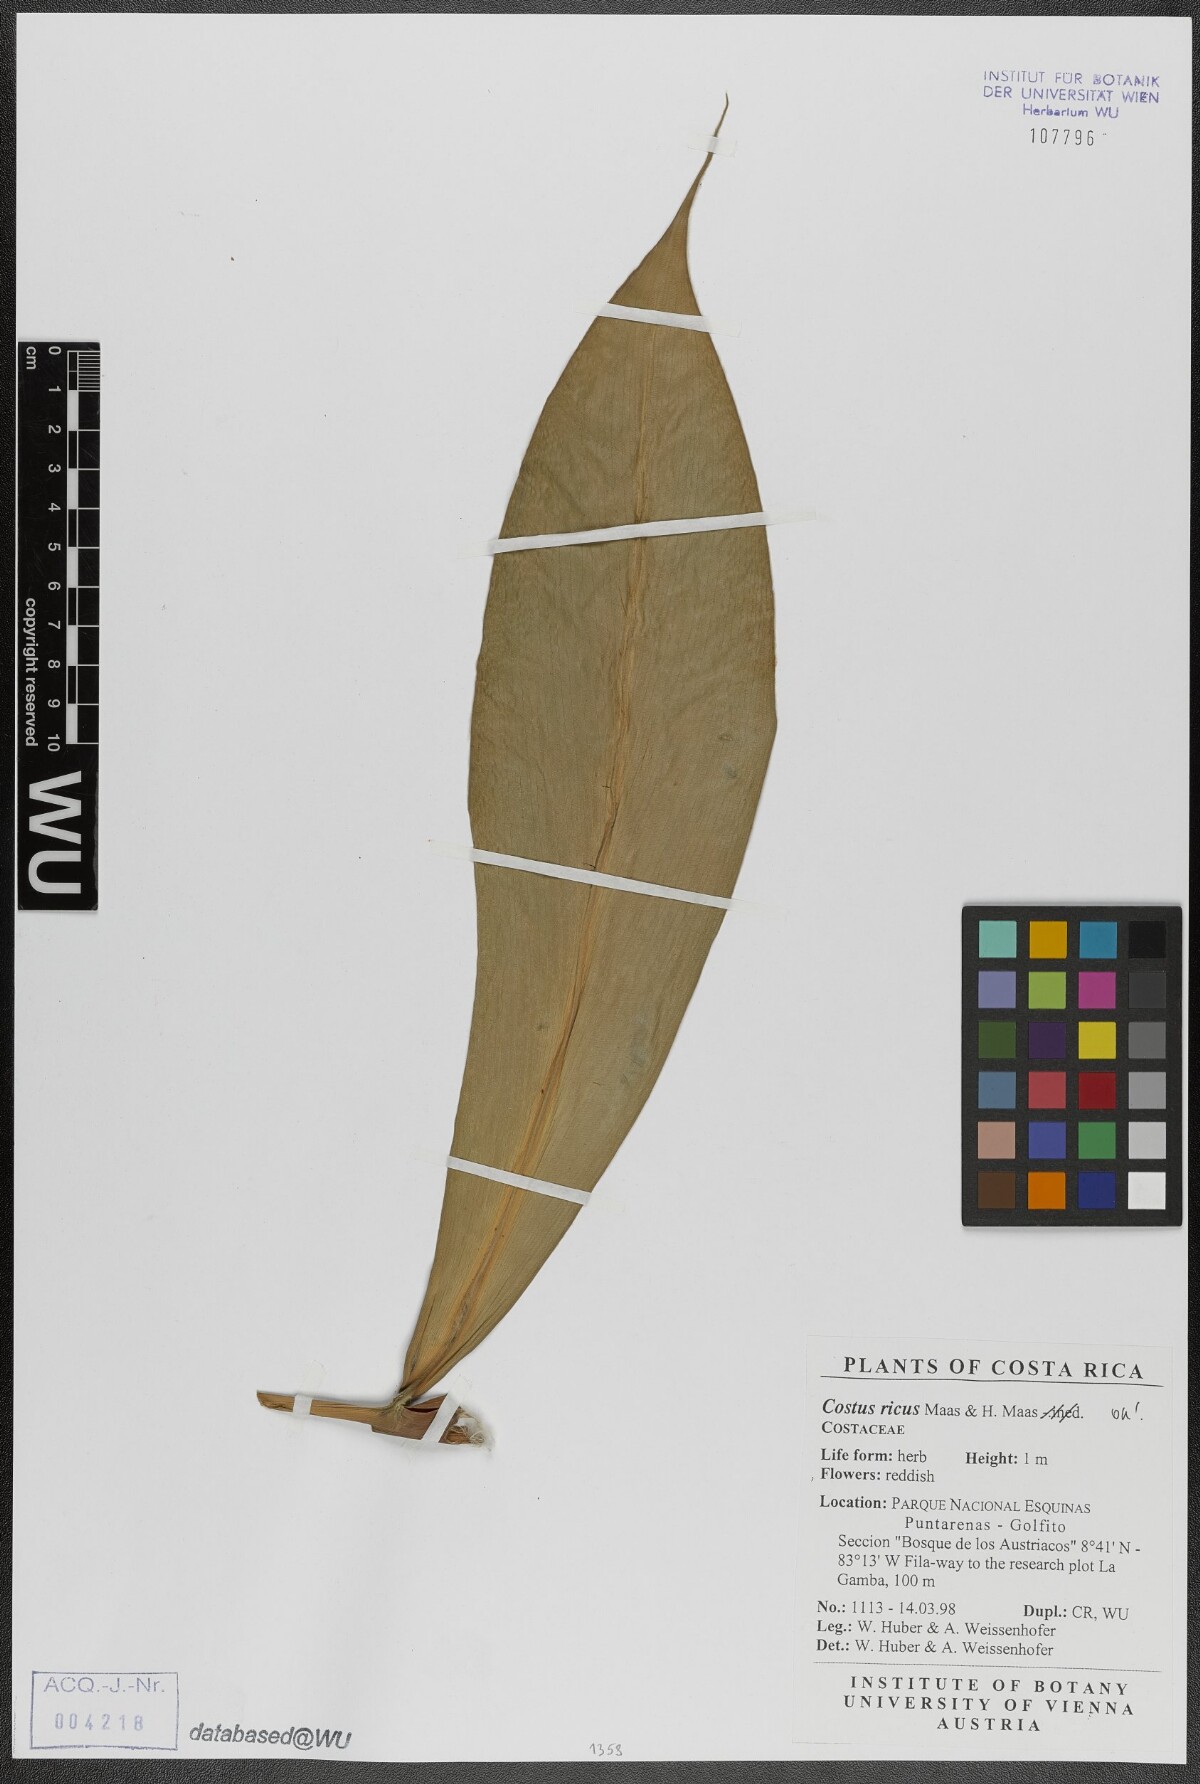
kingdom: Plantae
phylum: Tracheophyta
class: Liliopsida
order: Zingiberales
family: Costaceae
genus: Costus
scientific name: Costus ricus
